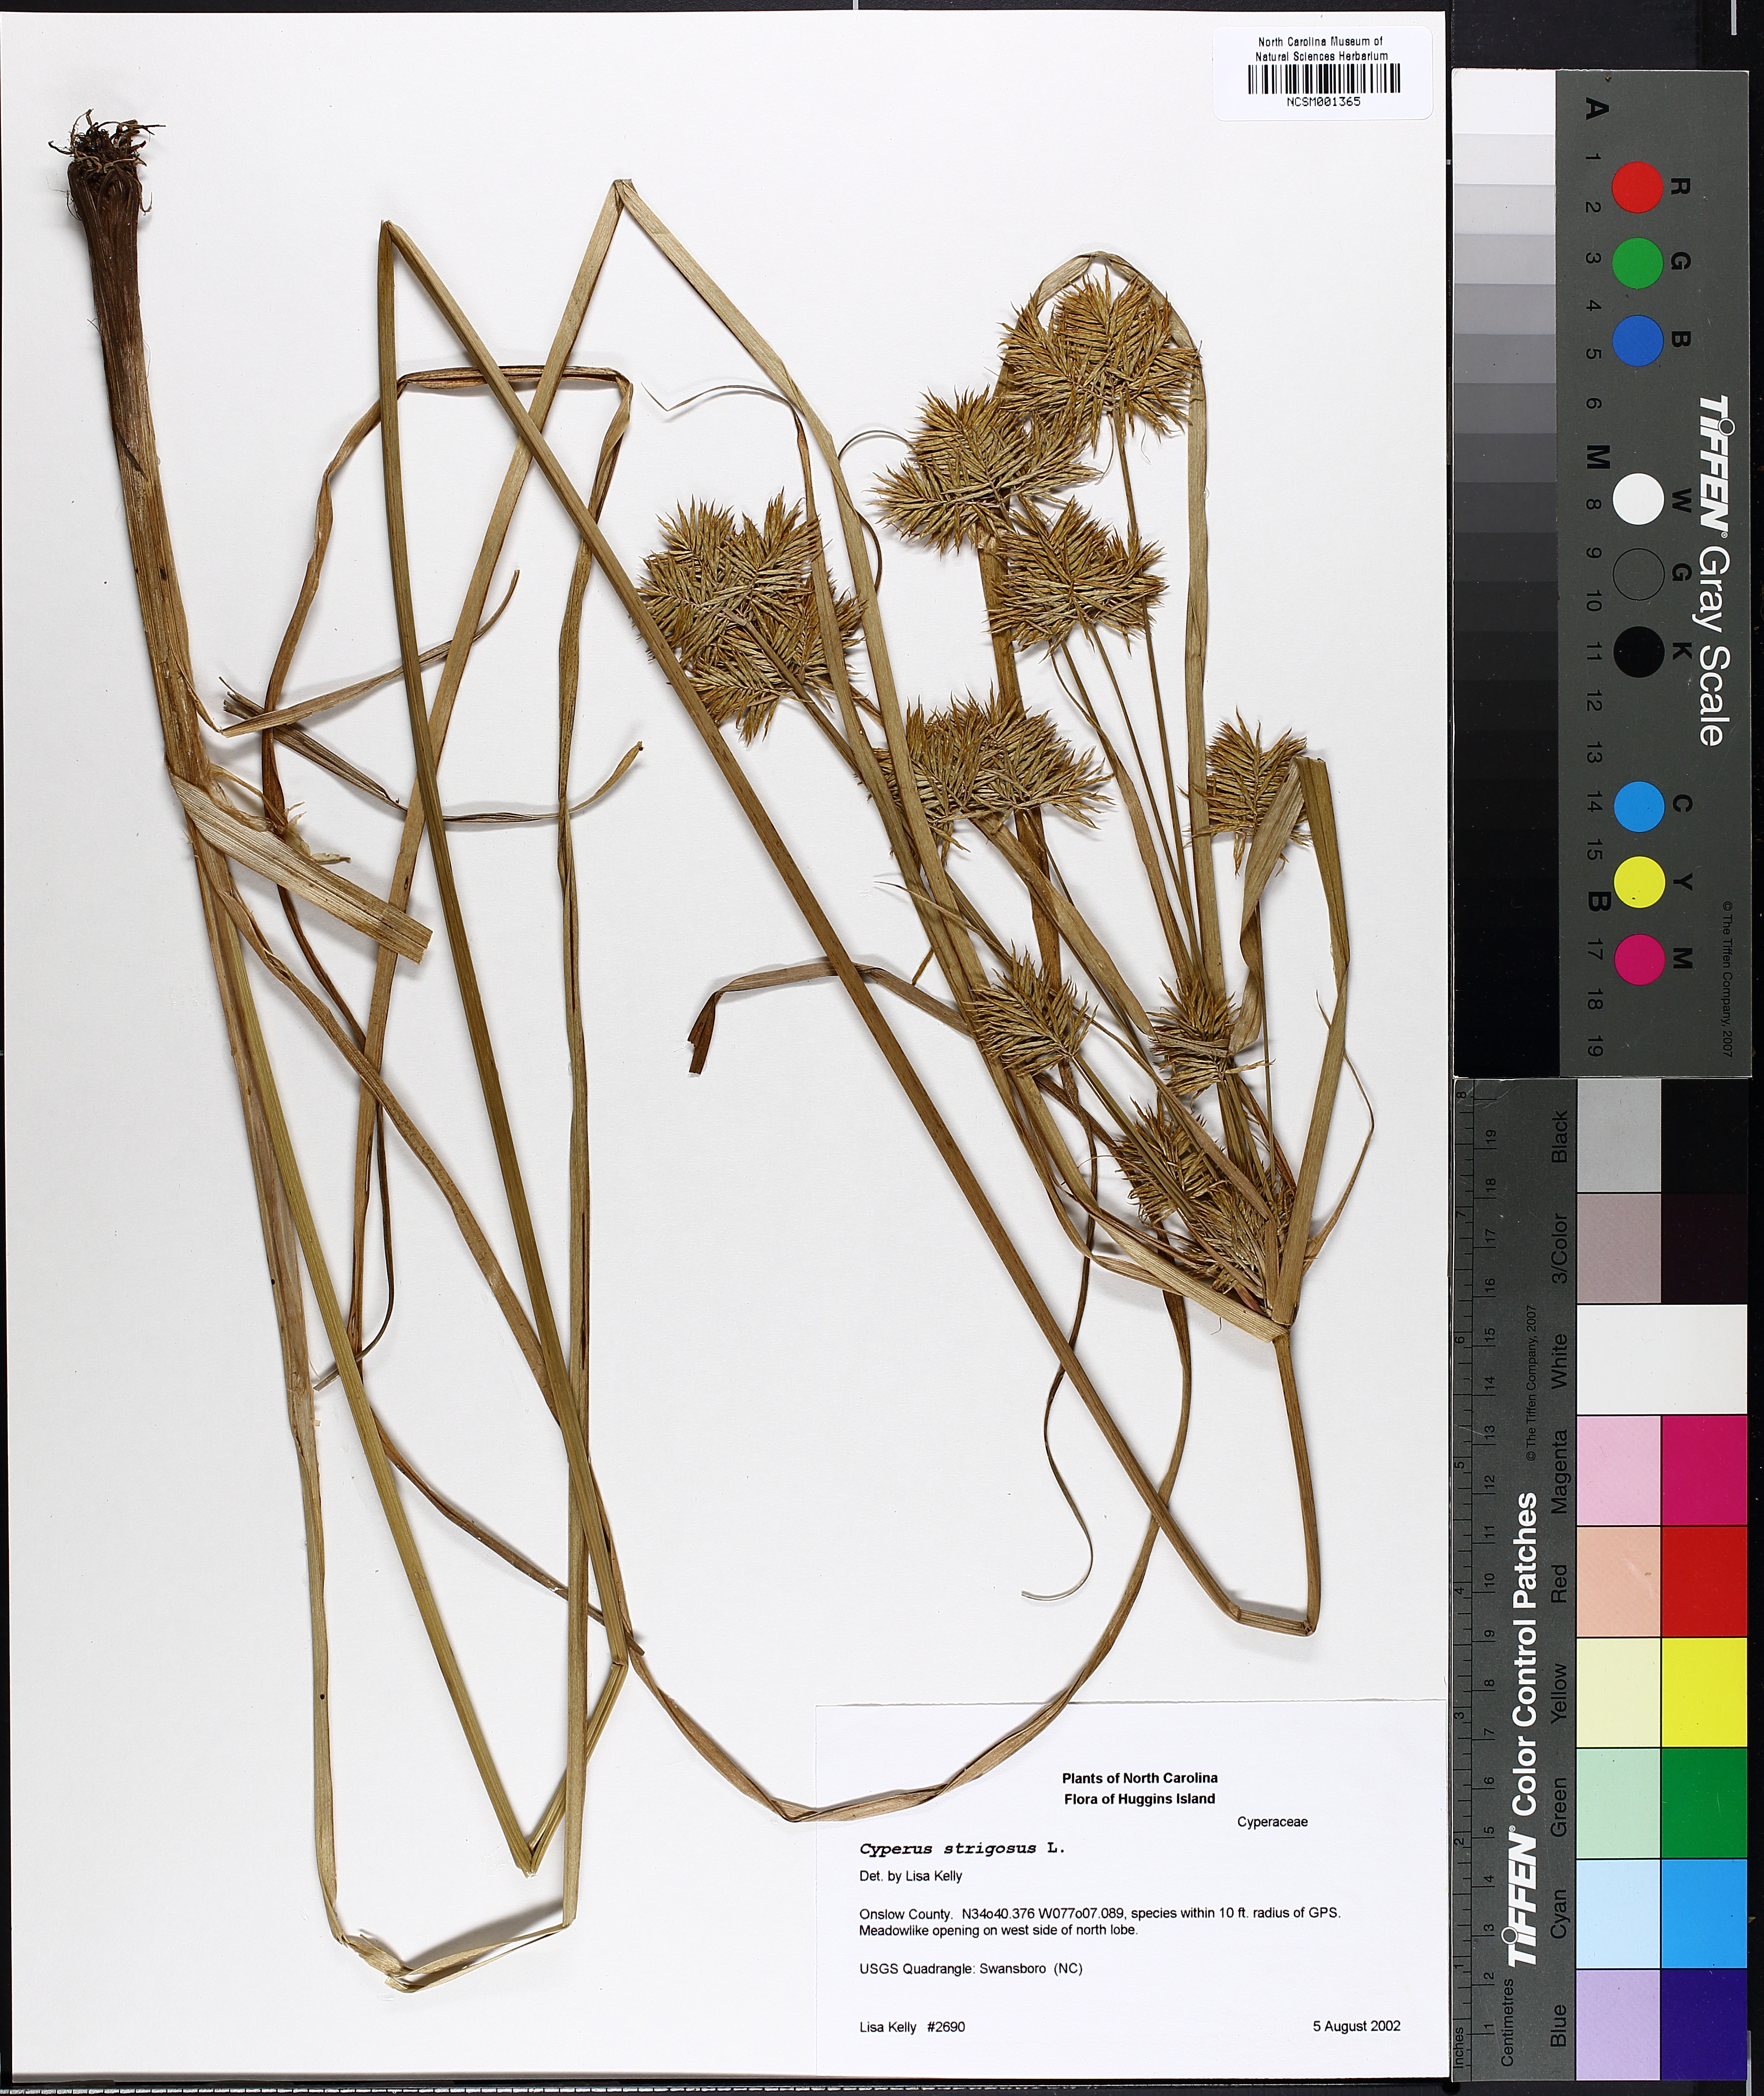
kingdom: Plantae
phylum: Tracheophyta
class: Liliopsida
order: Poales
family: Cyperaceae
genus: Cyperus
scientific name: Cyperus strigosus
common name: False nutsedge
